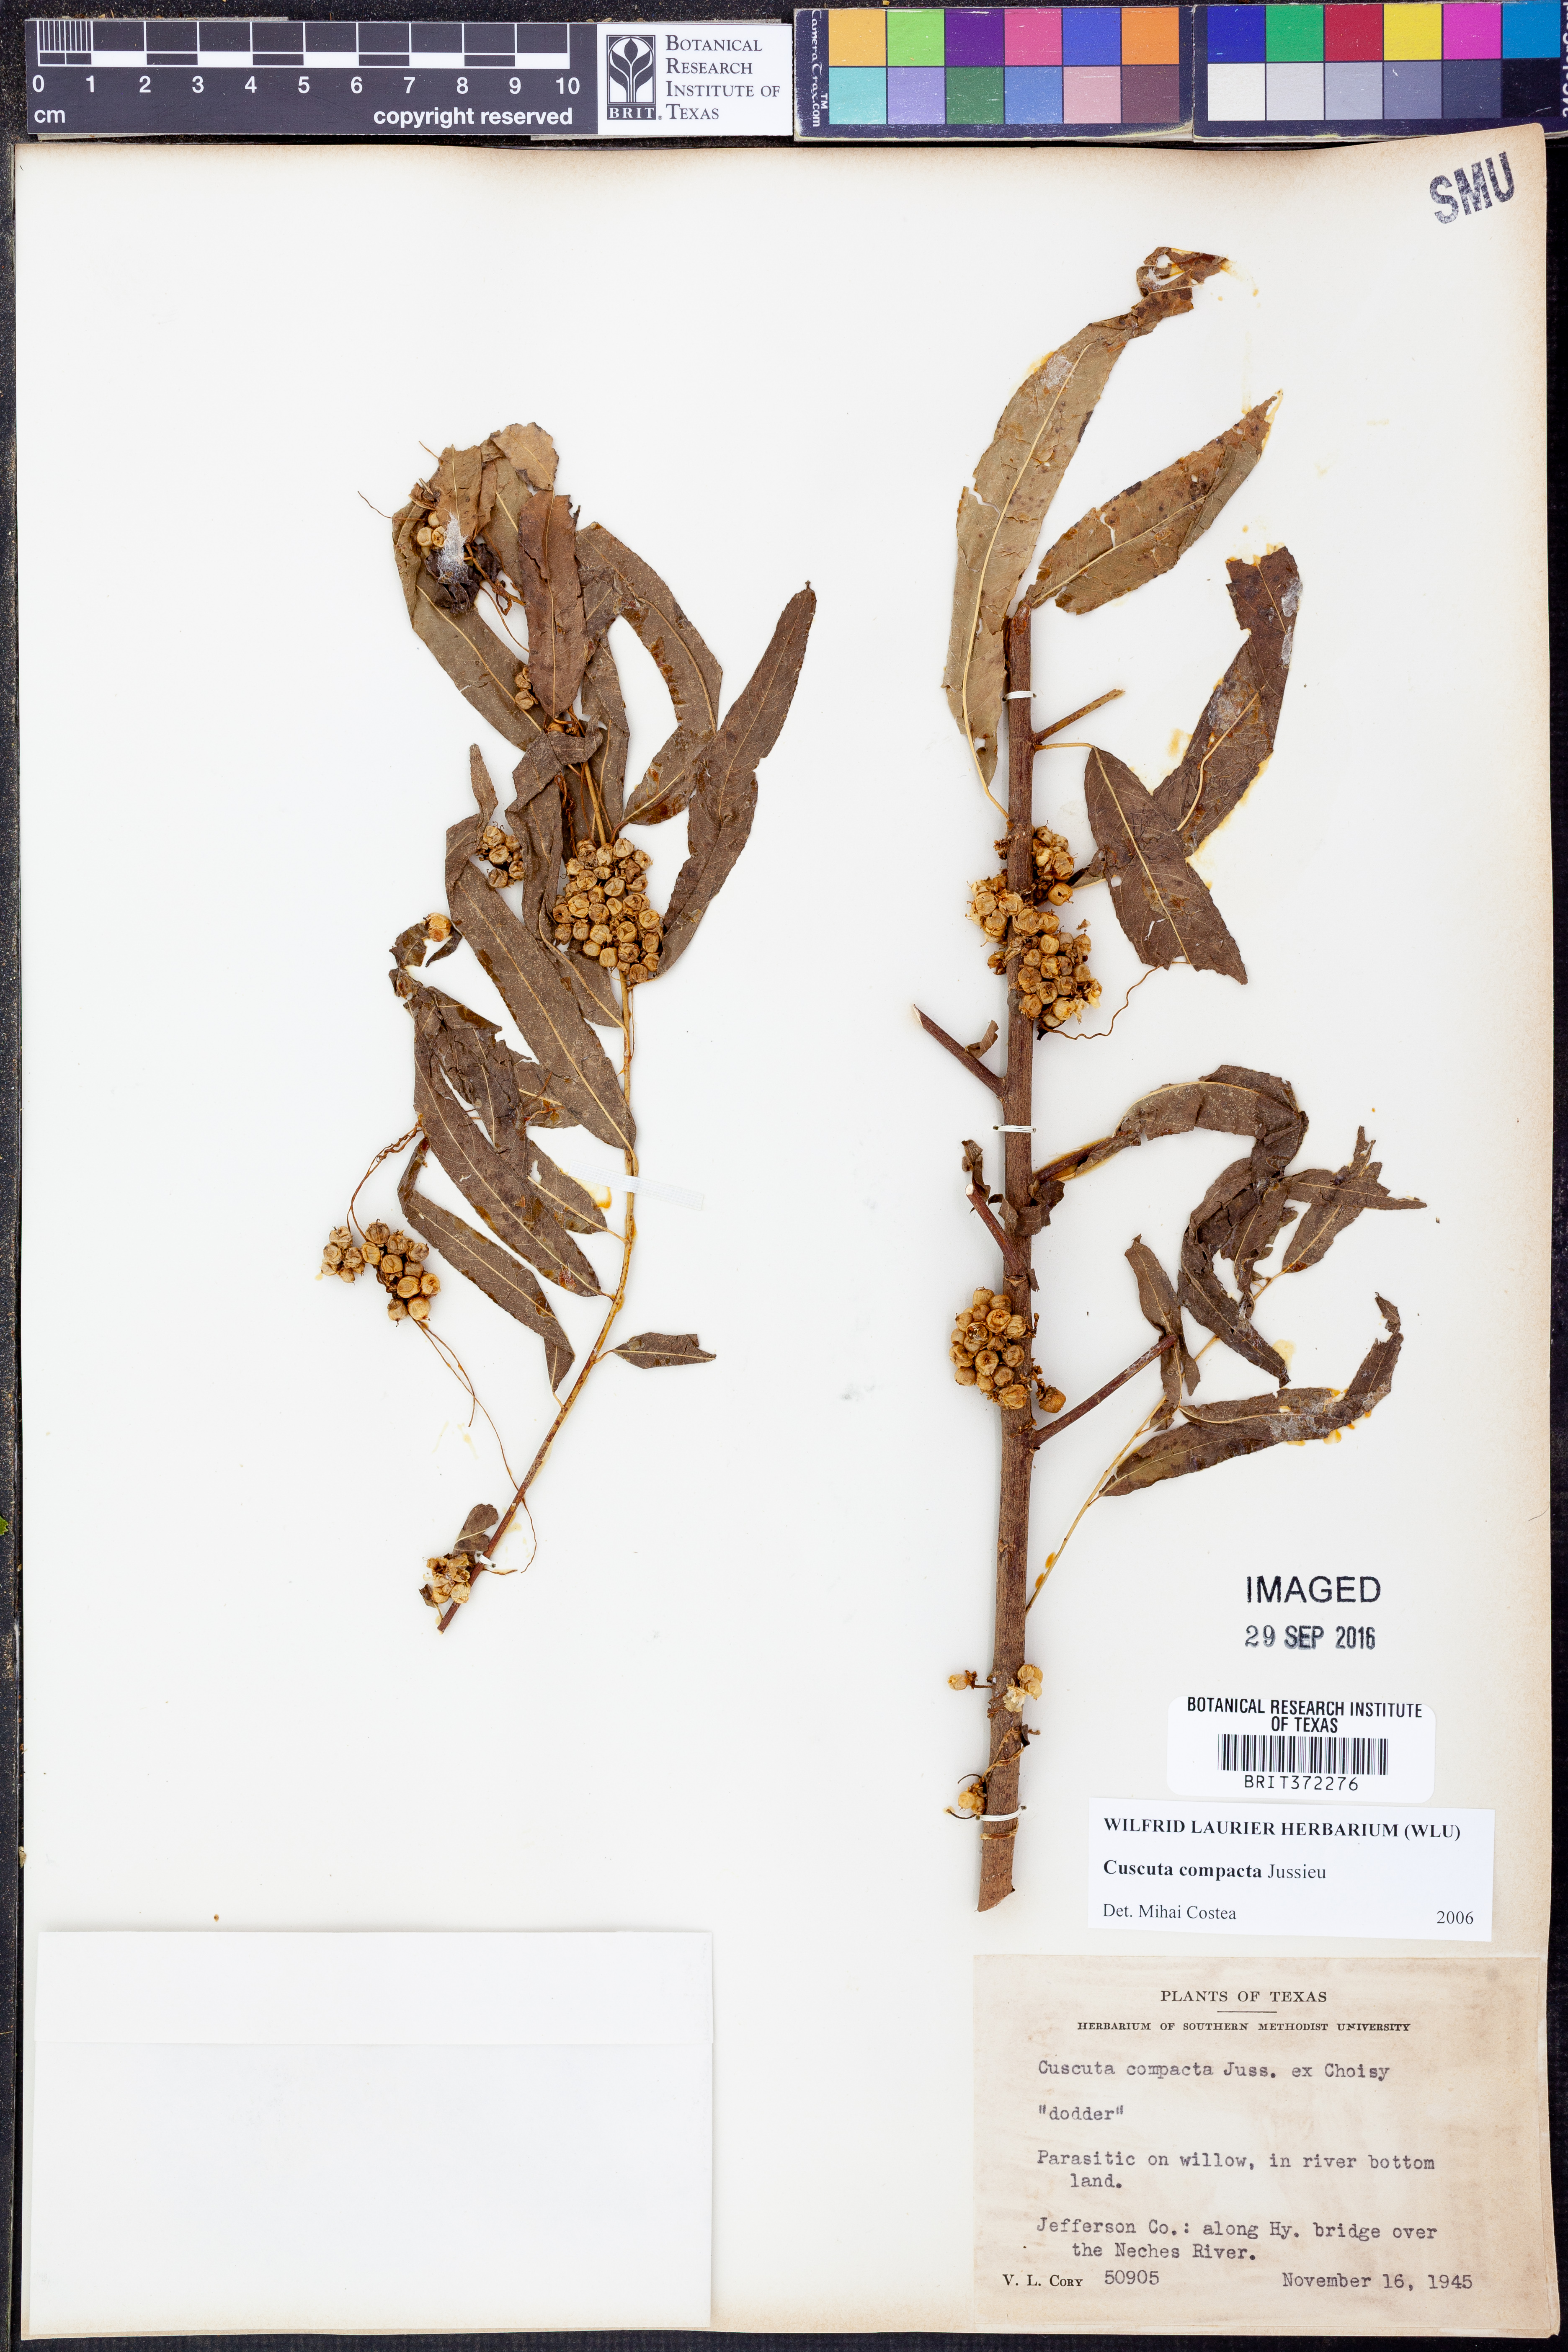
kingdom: Plantae
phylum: Tracheophyta
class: Magnoliopsida
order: Solanales
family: Convolvulaceae
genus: Cuscuta
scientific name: Cuscuta compacta
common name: Compact dodder
